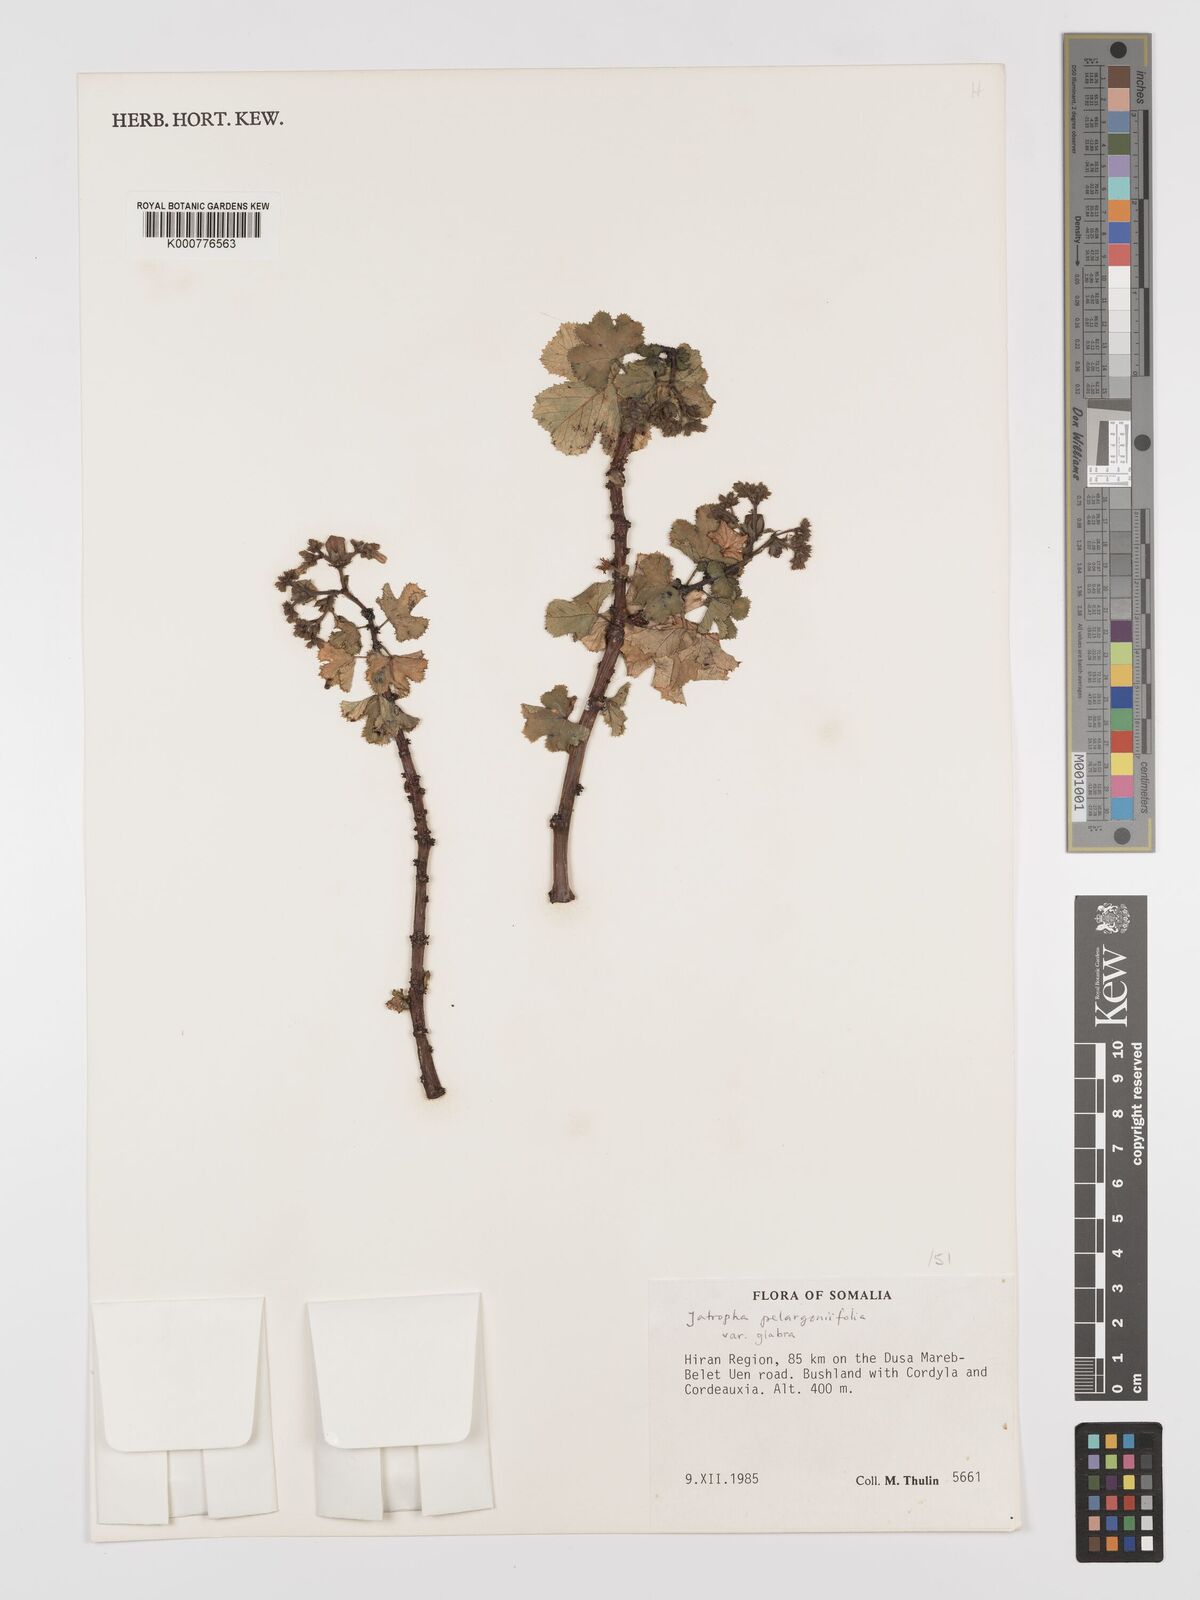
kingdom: Plantae
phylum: Tracheophyta
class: Magnoliopsida
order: Malpighiales
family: Euphorbiaceae
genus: Jatropha
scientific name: Jatropha pelargoniifolia
